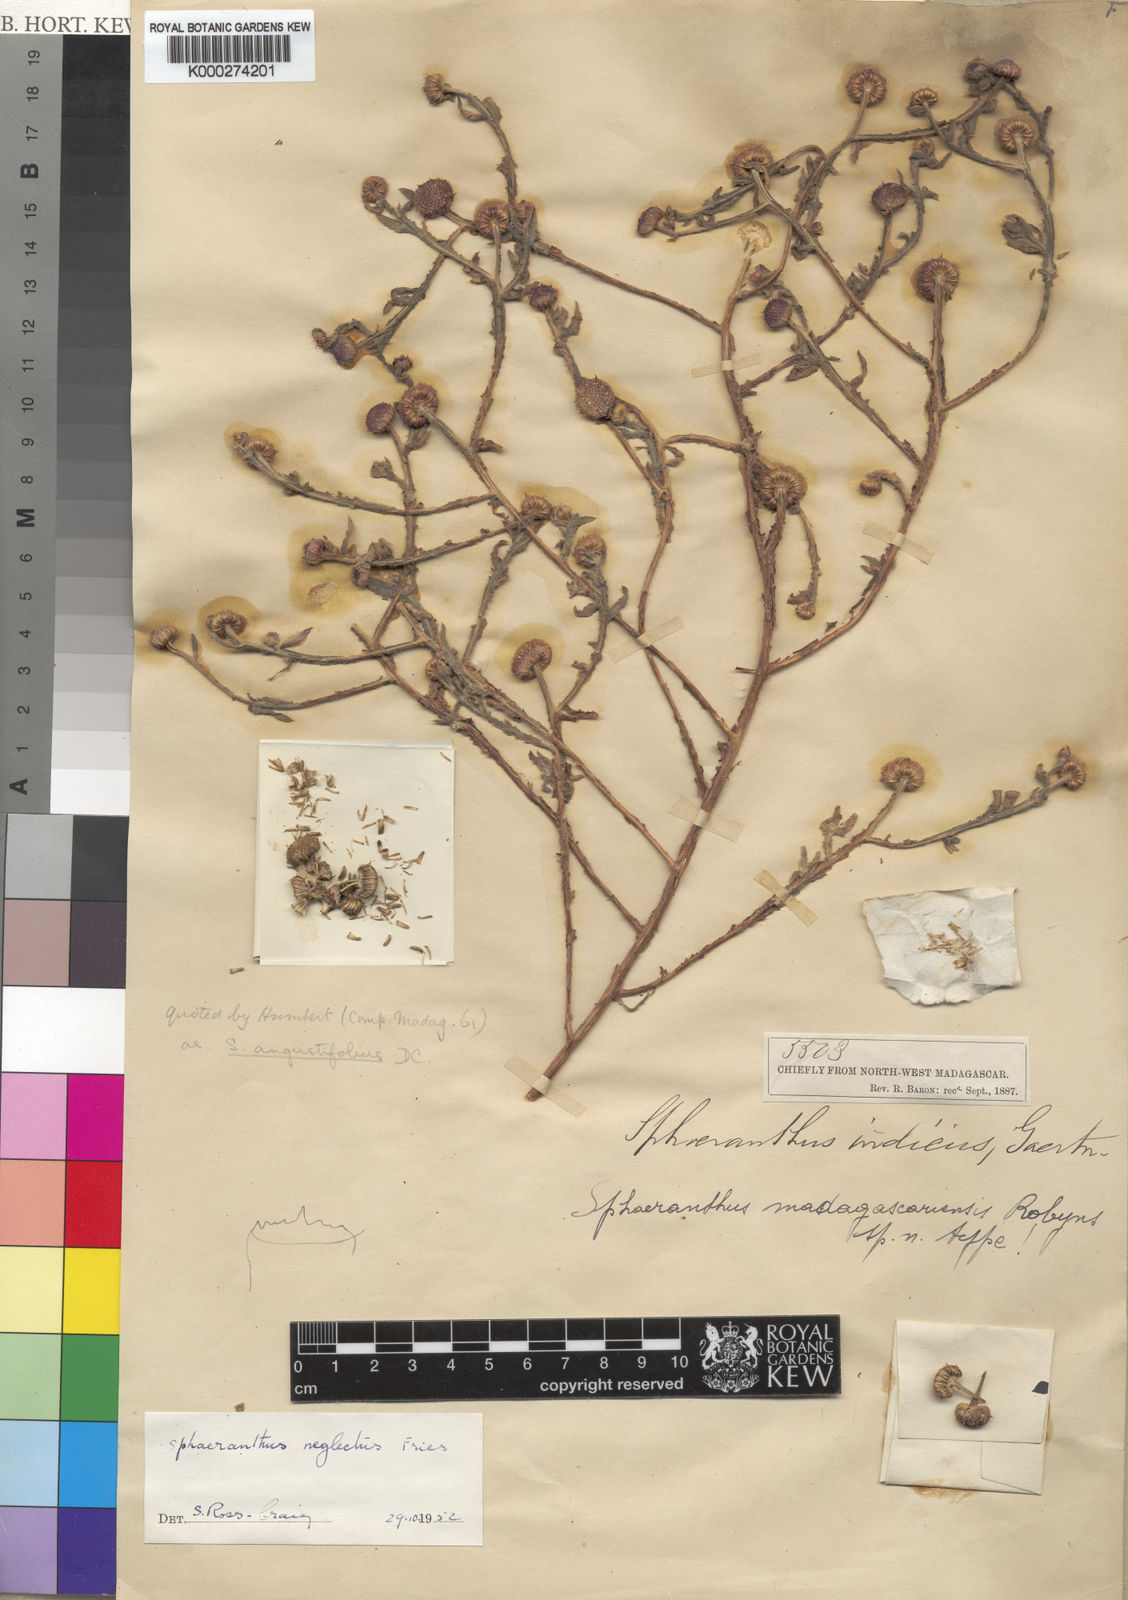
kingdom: Plantae
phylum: Tracheophyta
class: Magnoliopsida
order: Asterales
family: Asteraceae
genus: Sphaeranthus
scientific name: Sphaeranthus neglectus
